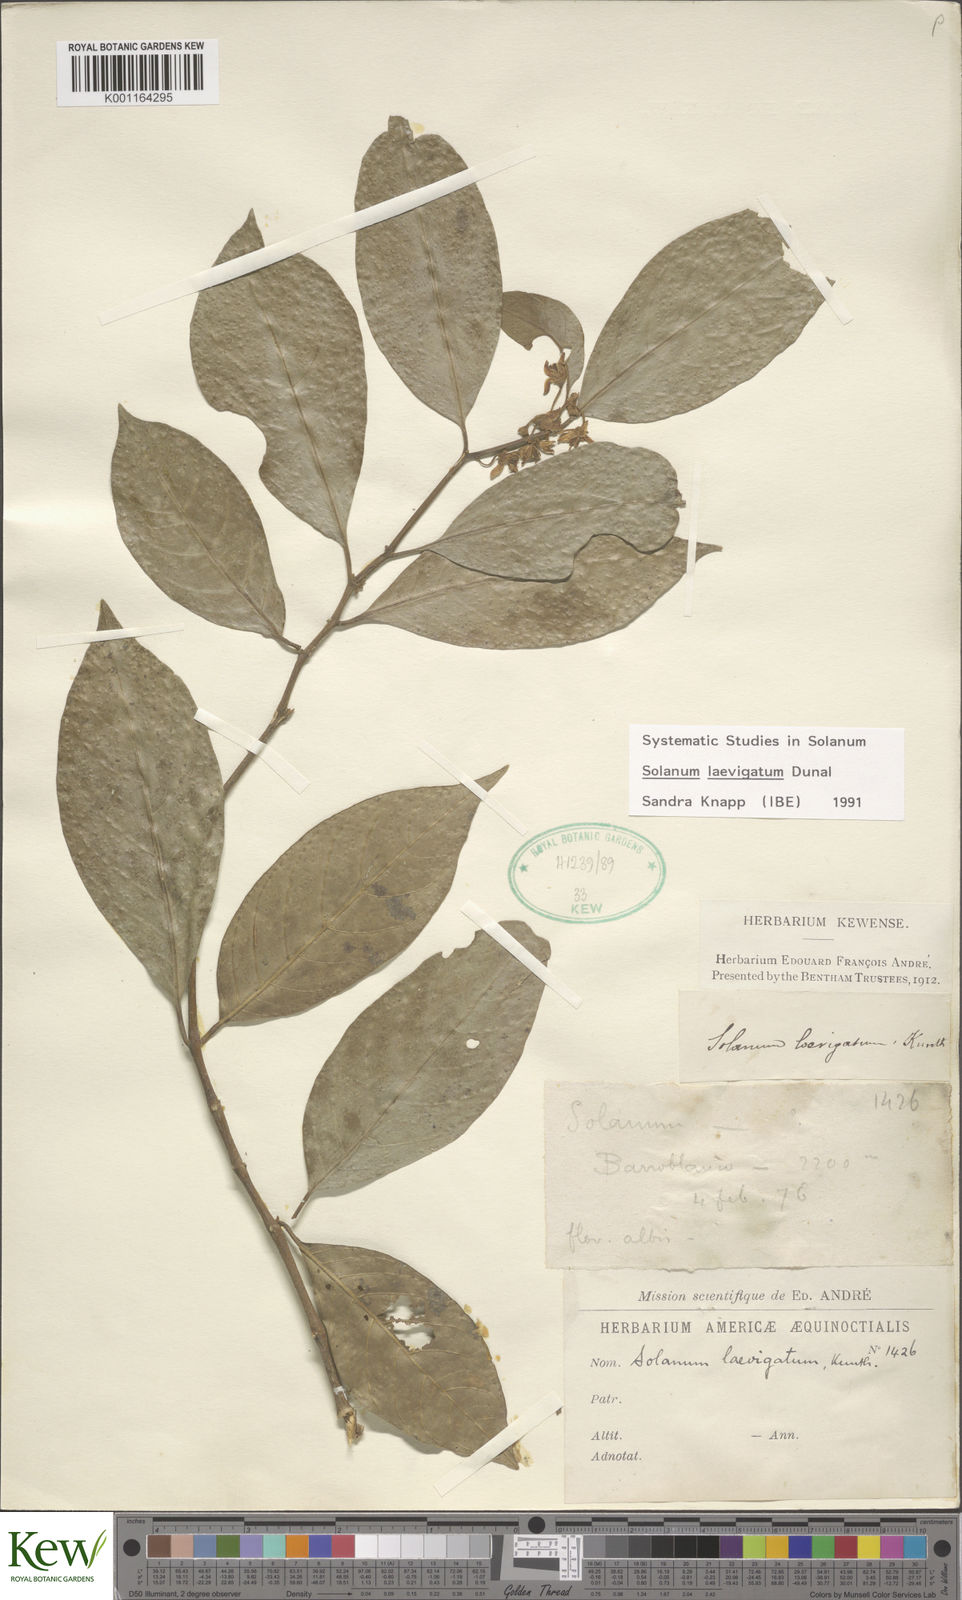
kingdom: Plantae
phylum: Tracheophyta
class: Magnoliopsida
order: Solanales
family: Solanaceae
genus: Solanum
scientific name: Solanum nudum
